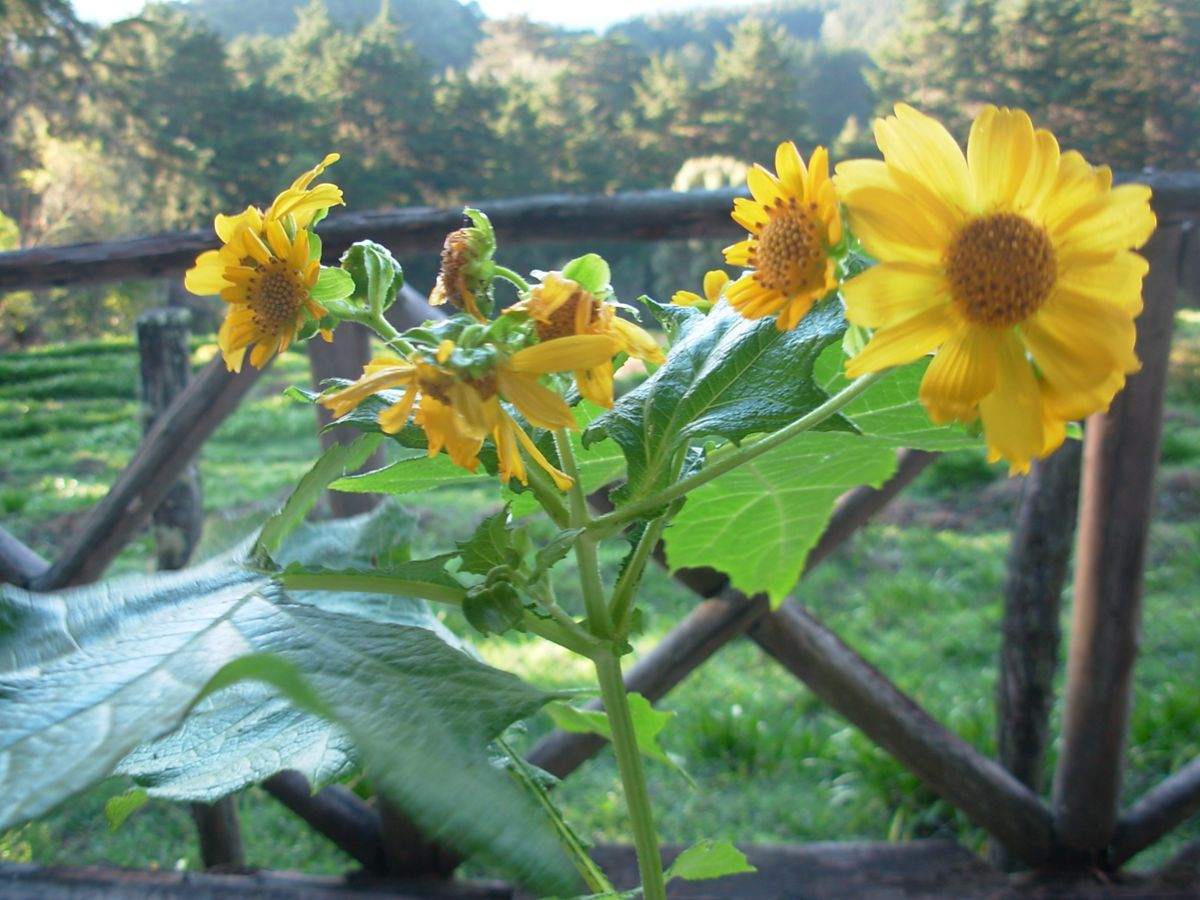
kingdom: Plantae
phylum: Tracheophyta
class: Magnoliopsida
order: Asterales
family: Asteraceae
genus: Smallanthus
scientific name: Smallanthus maculatus
